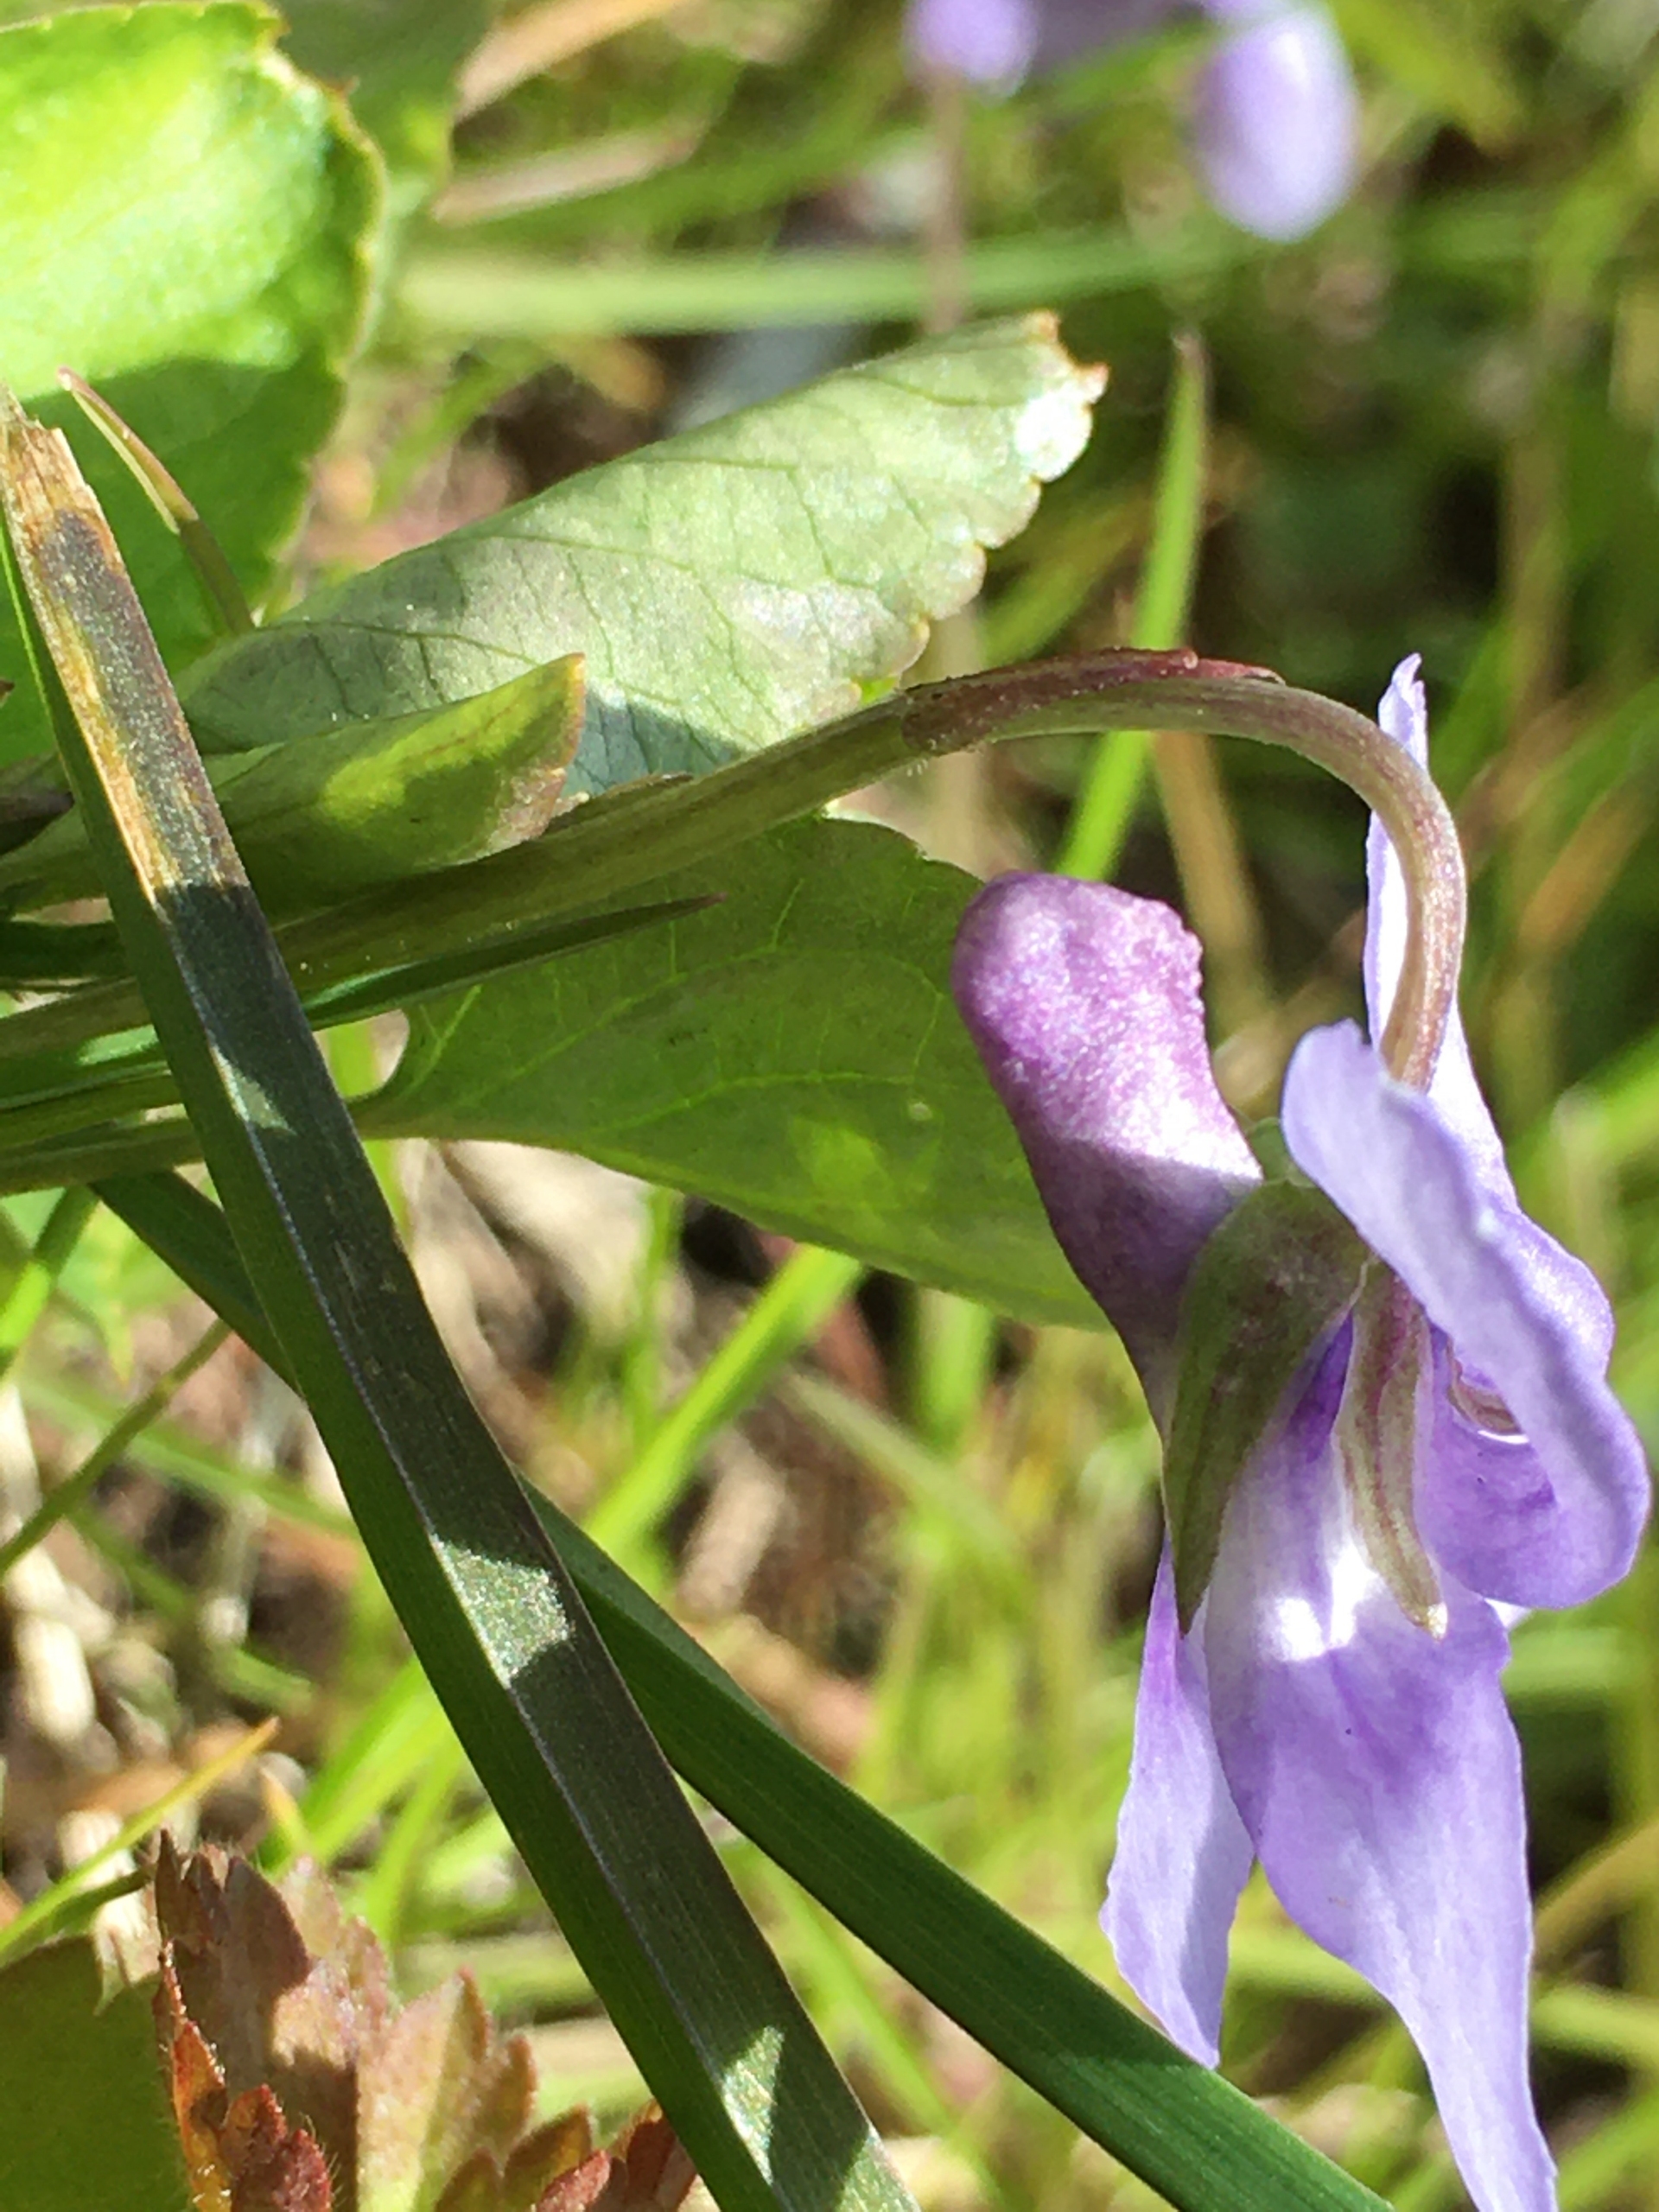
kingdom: Plantae
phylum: Tracheophyta
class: Magnoliopsida
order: Malpighiales
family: Violaceae
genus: Viola
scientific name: Viola reichenbachiana
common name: Skov-viol
